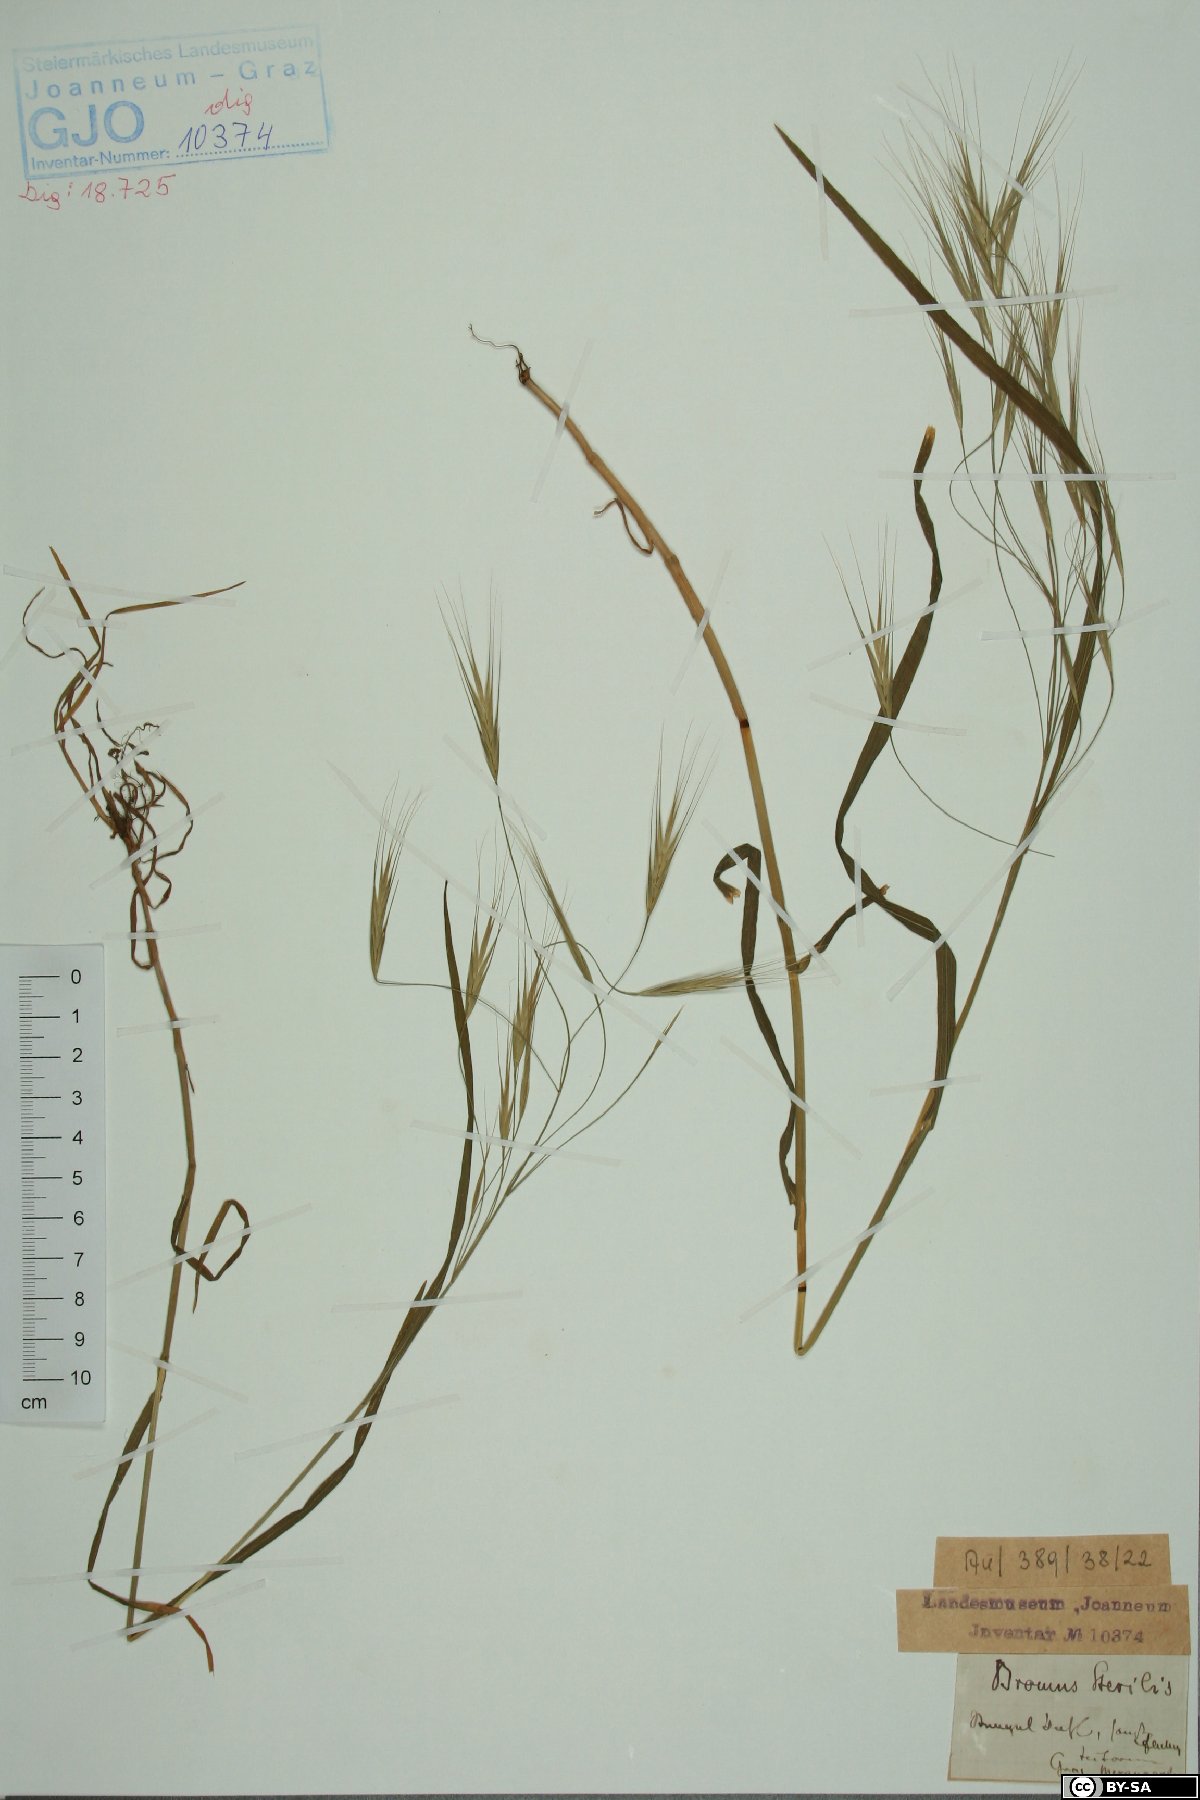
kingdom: Plantae
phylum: Tracheophyta
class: Liliopsida
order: Poales
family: Poaceae
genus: Bromus
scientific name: Bromus sterilis
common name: Poverty brome
